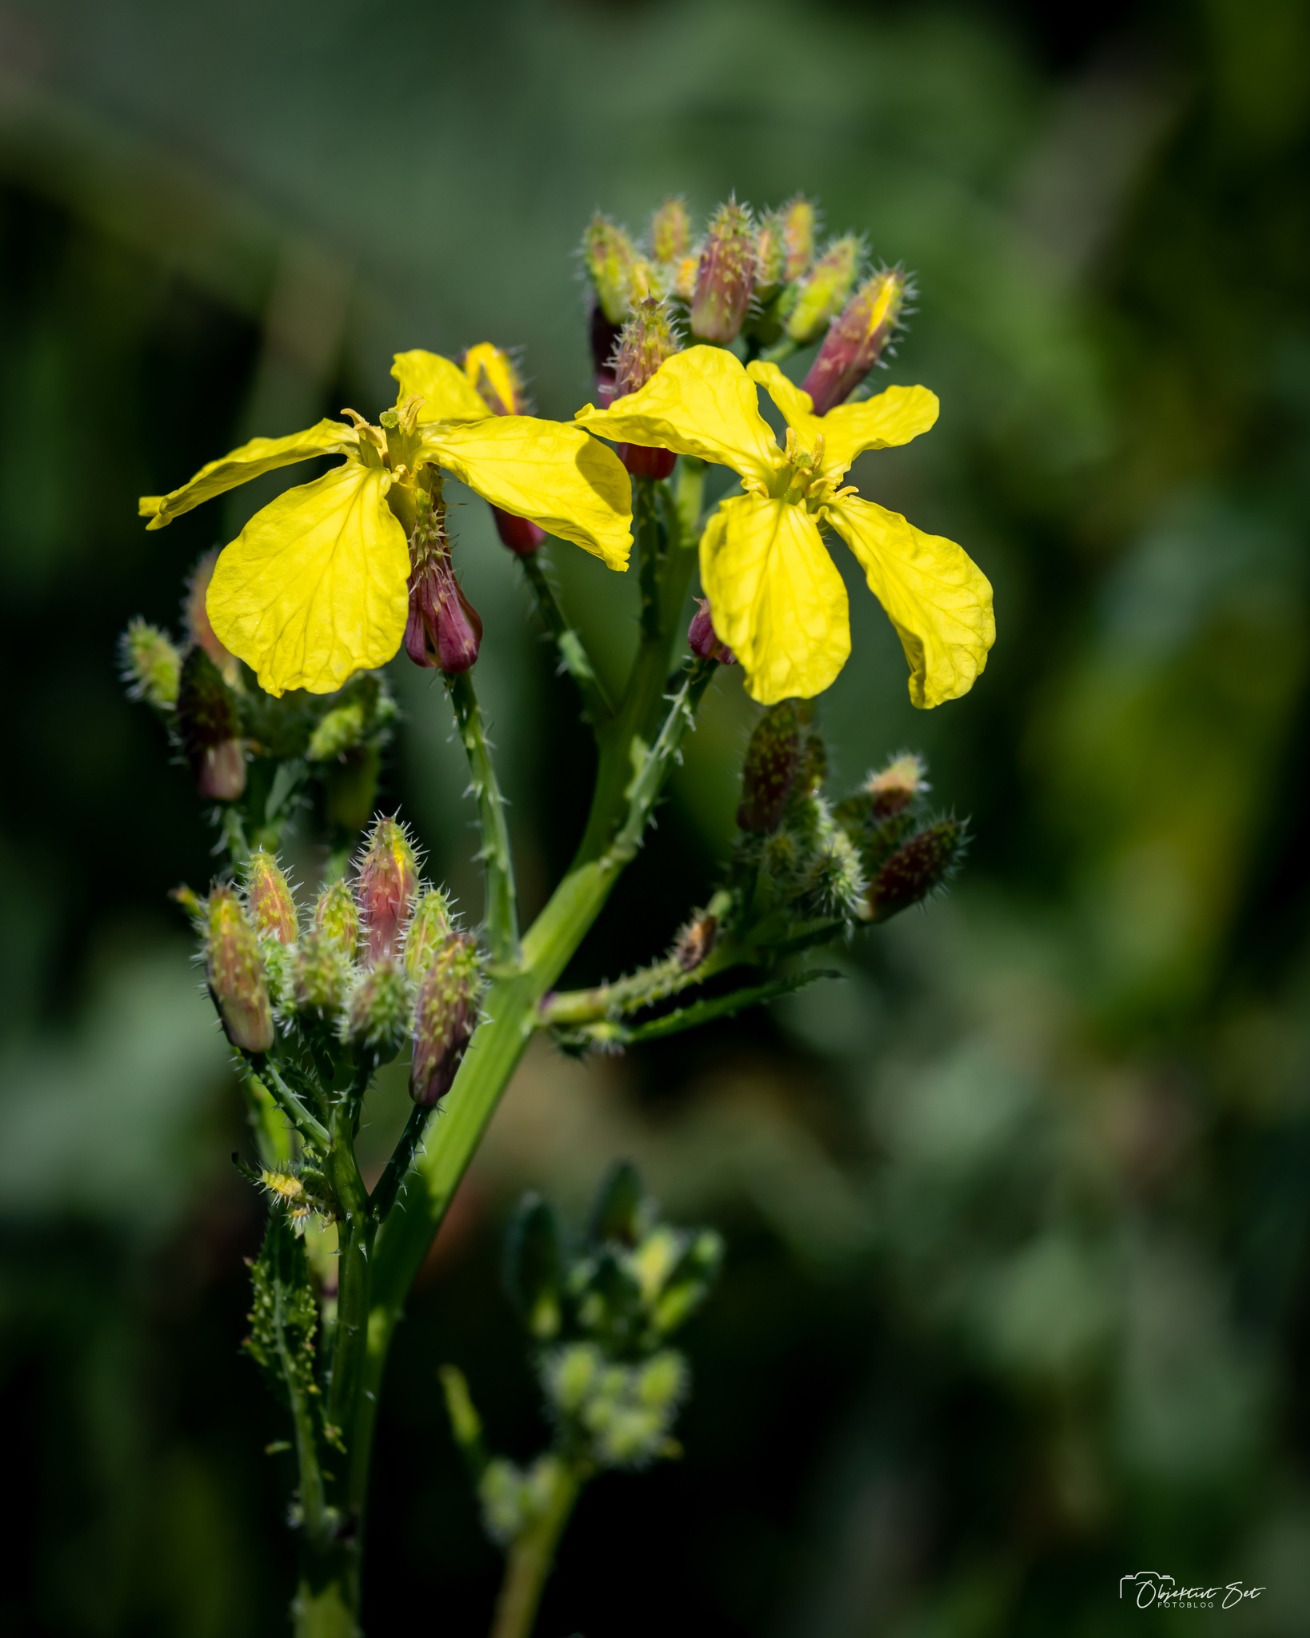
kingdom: Plantae
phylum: Tracheophyta
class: Magnoliopsida
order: Brassicales
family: Brassicaceae
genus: Eruca
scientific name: Eruca vesicaria
